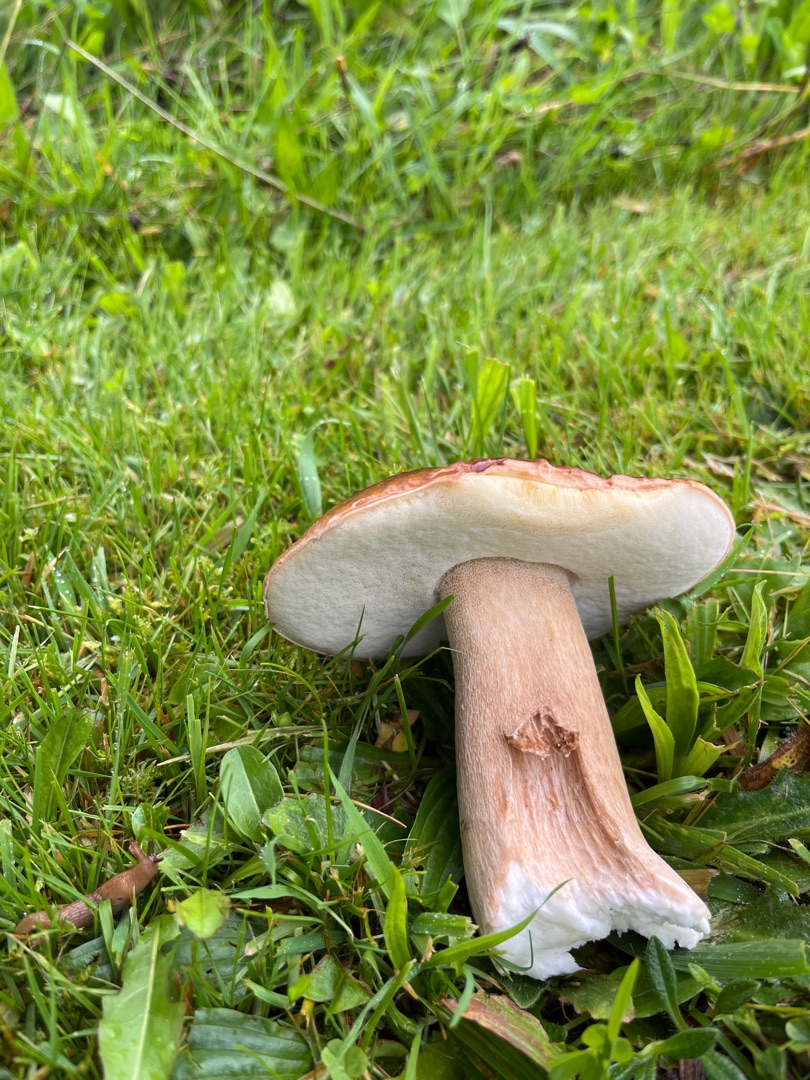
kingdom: Fungi
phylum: Basidiomycota
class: Agaricomycetes
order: Boletales
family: Boletaceae
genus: Boletus
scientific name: Boletus edulis
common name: Spiselig rørhat/karl johan
